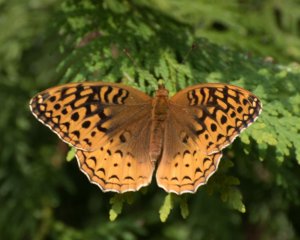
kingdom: Animalia
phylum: Arthropoda
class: Insecta
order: Lepidoptera
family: Nymphalidae
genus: Speyeria
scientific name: Speyeria cybele
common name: Great Spangled Fritillary
